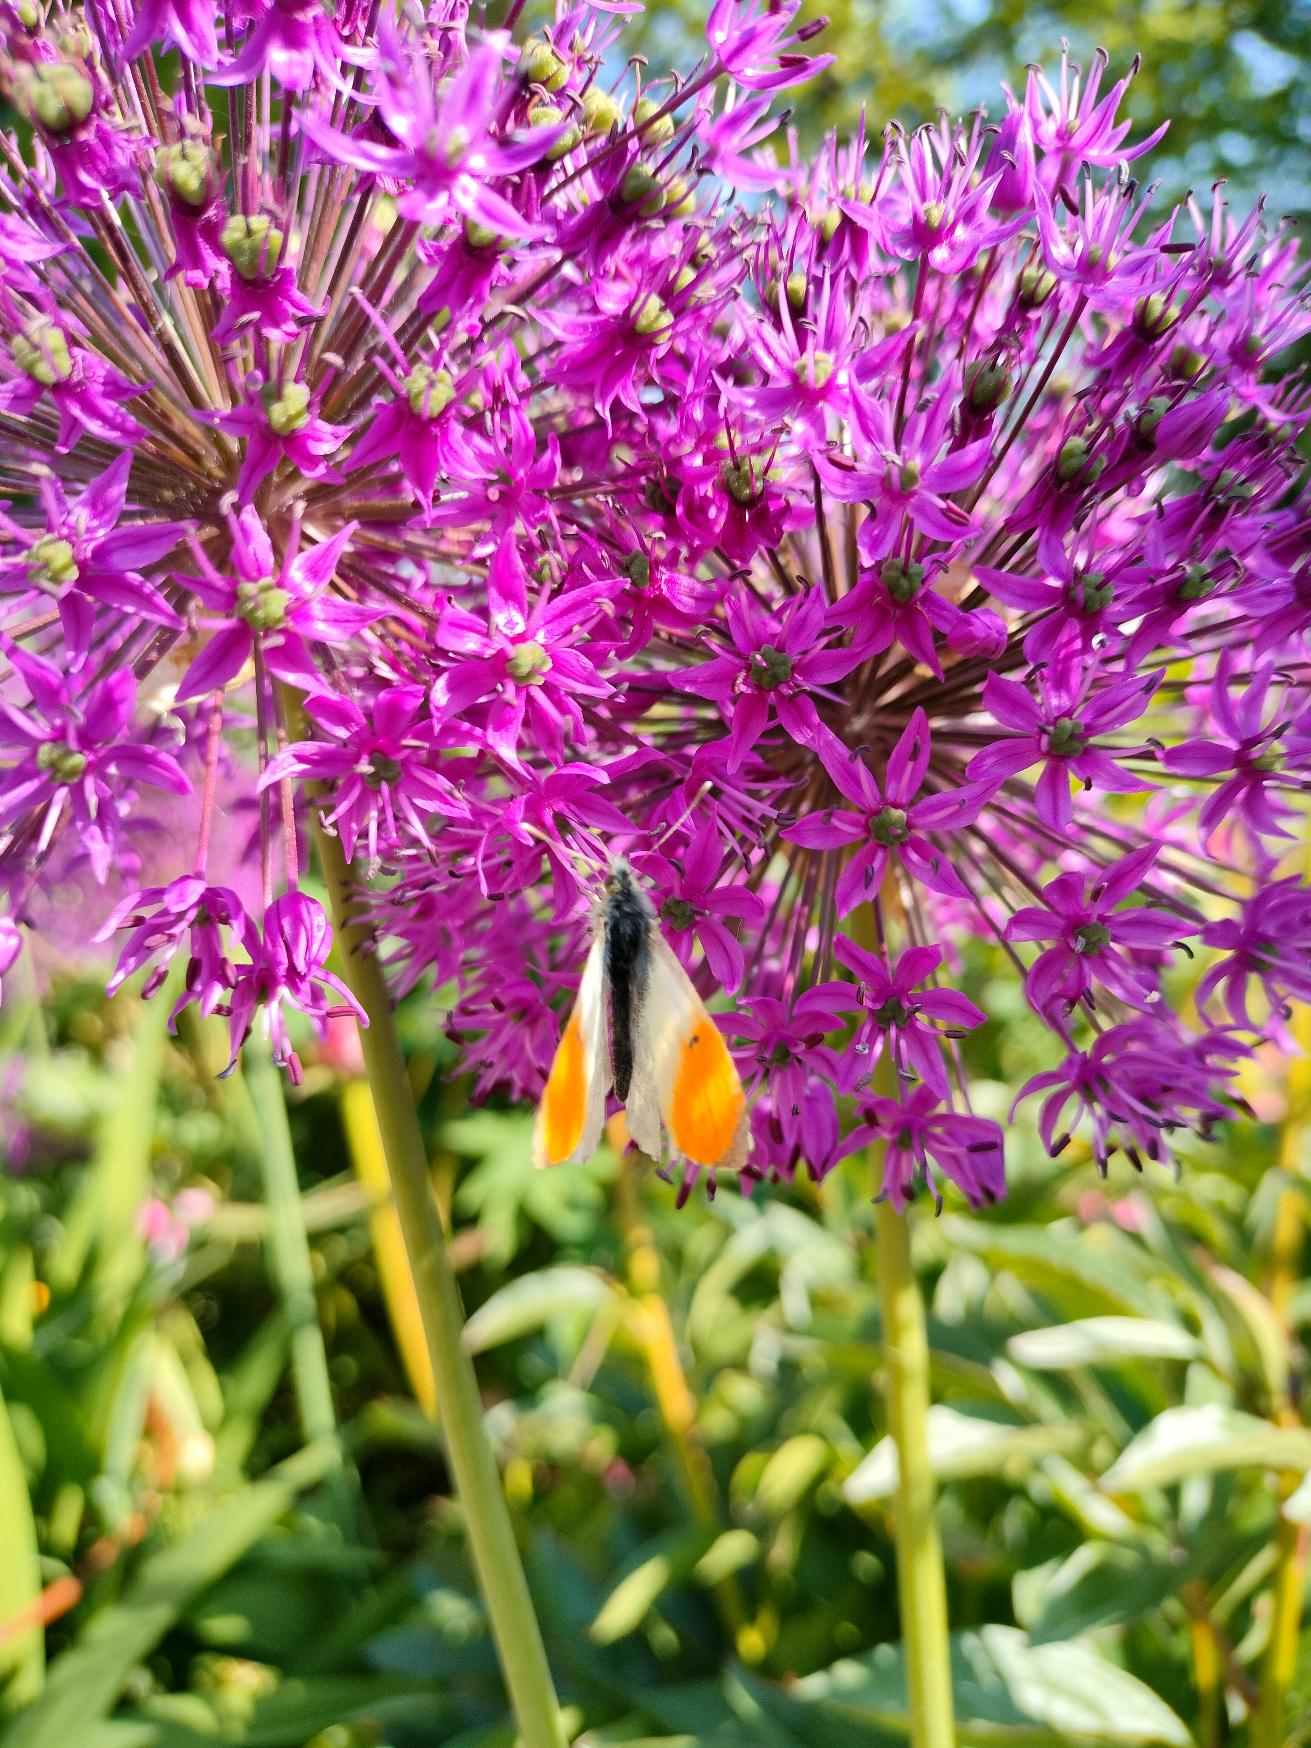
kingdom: Animalia
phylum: Arthropoda
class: Insecta
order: Lepidoptera
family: Pieridae
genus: Anthocharis
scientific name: Anthocharis cardamines
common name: Aurora
